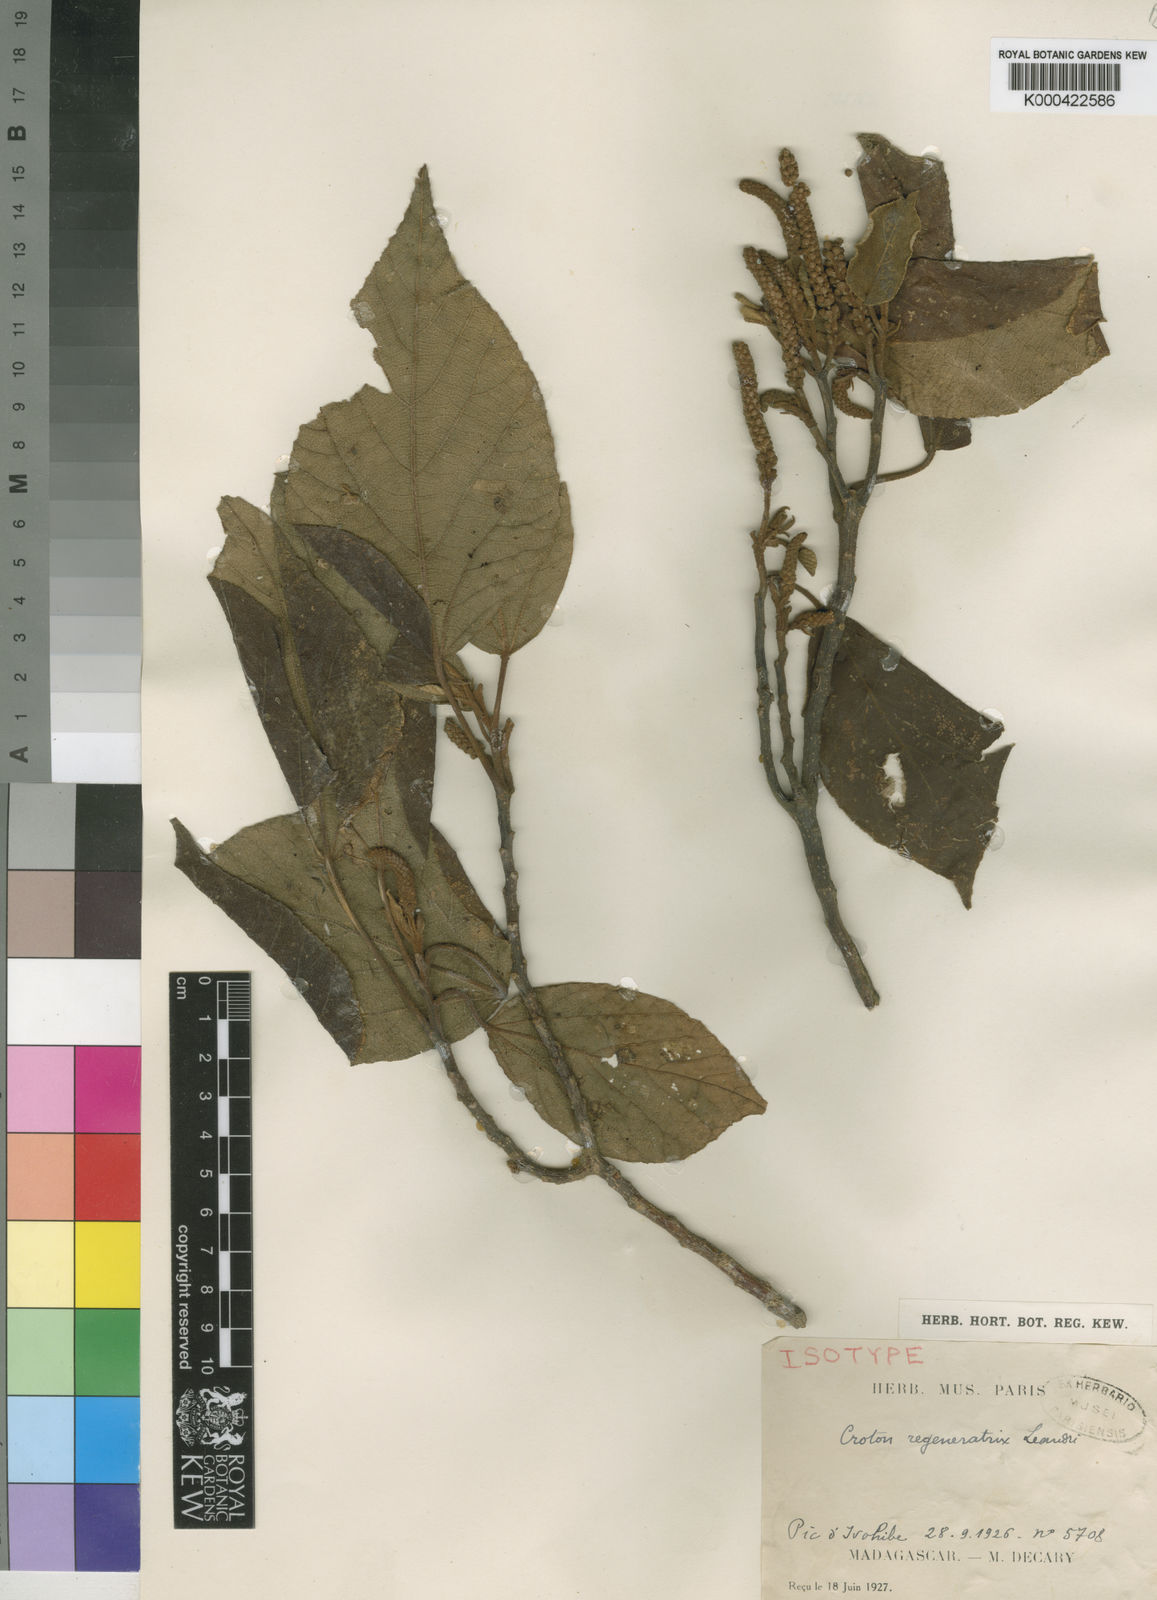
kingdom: Plantae
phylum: Tracheophyta
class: Magnoliopsida
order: Malpighiales
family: Euphorbiaceae
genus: Croton
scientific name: Croton regeneratrix
